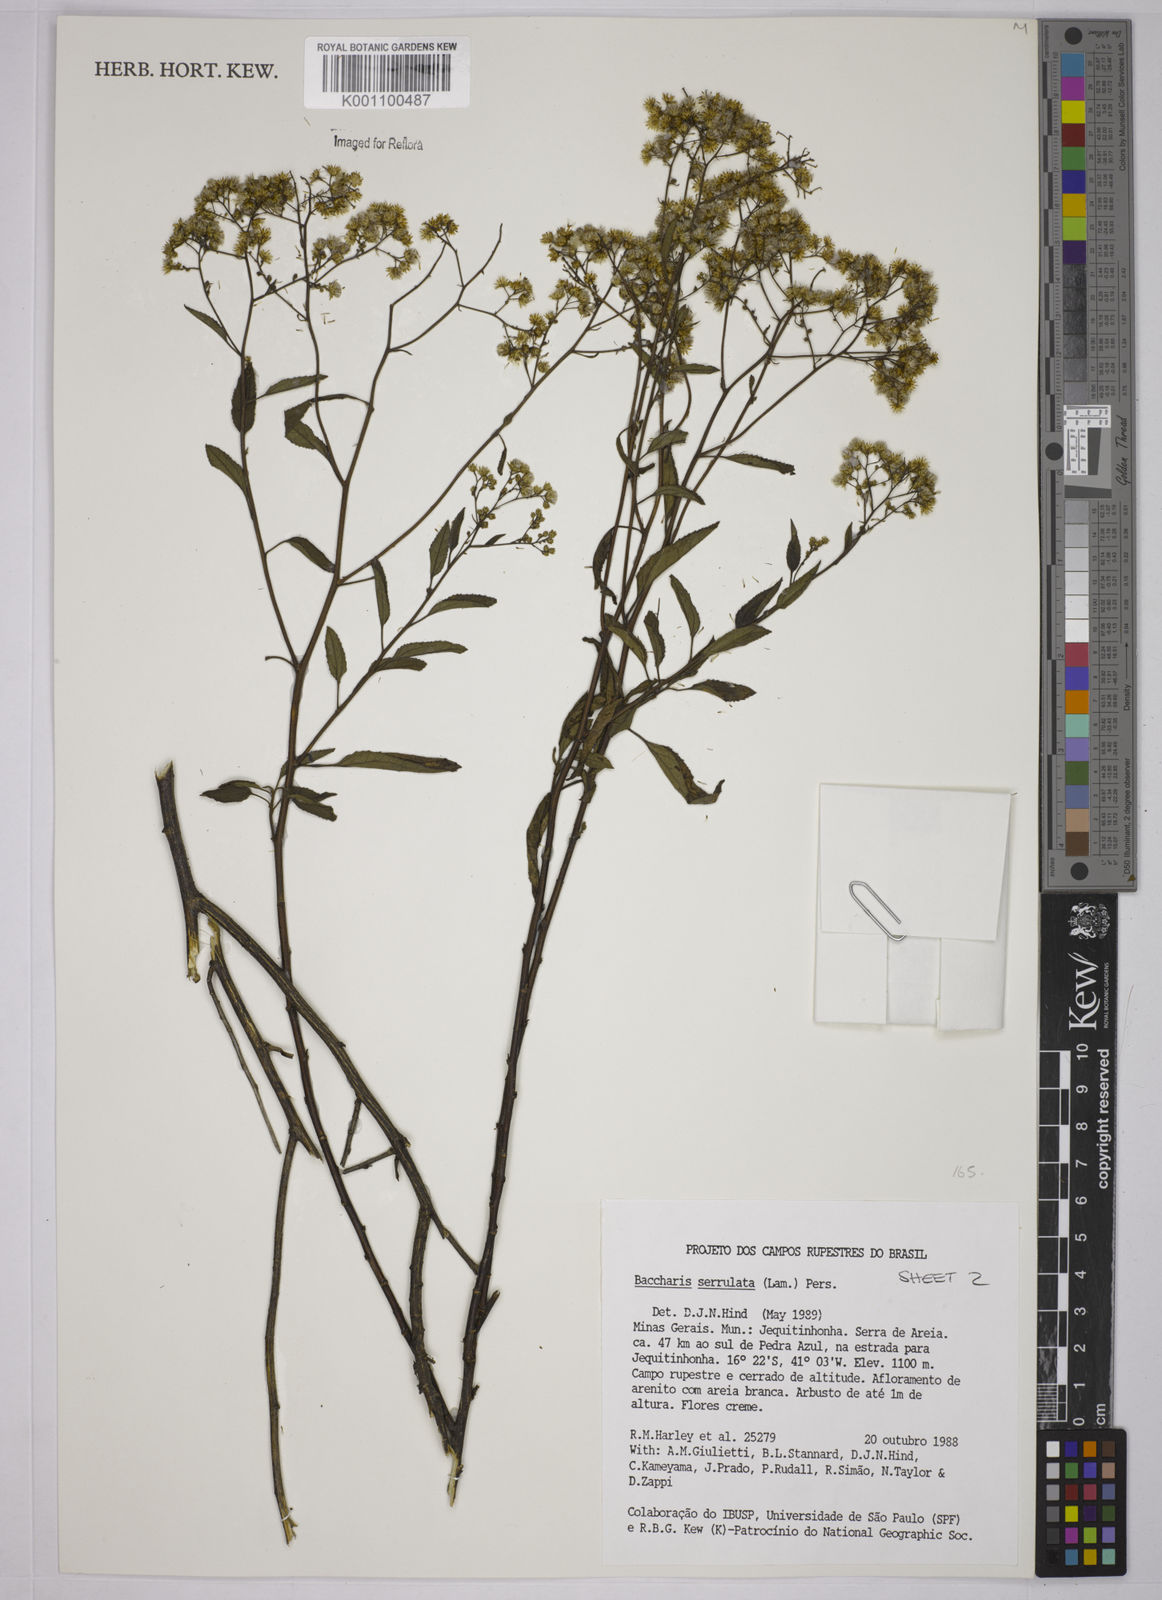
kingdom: Plantae
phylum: Tracheophyta
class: Magnoliopsida
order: Asterales
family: Asteraceae
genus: Baccharis
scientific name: Baccharis serrulata
